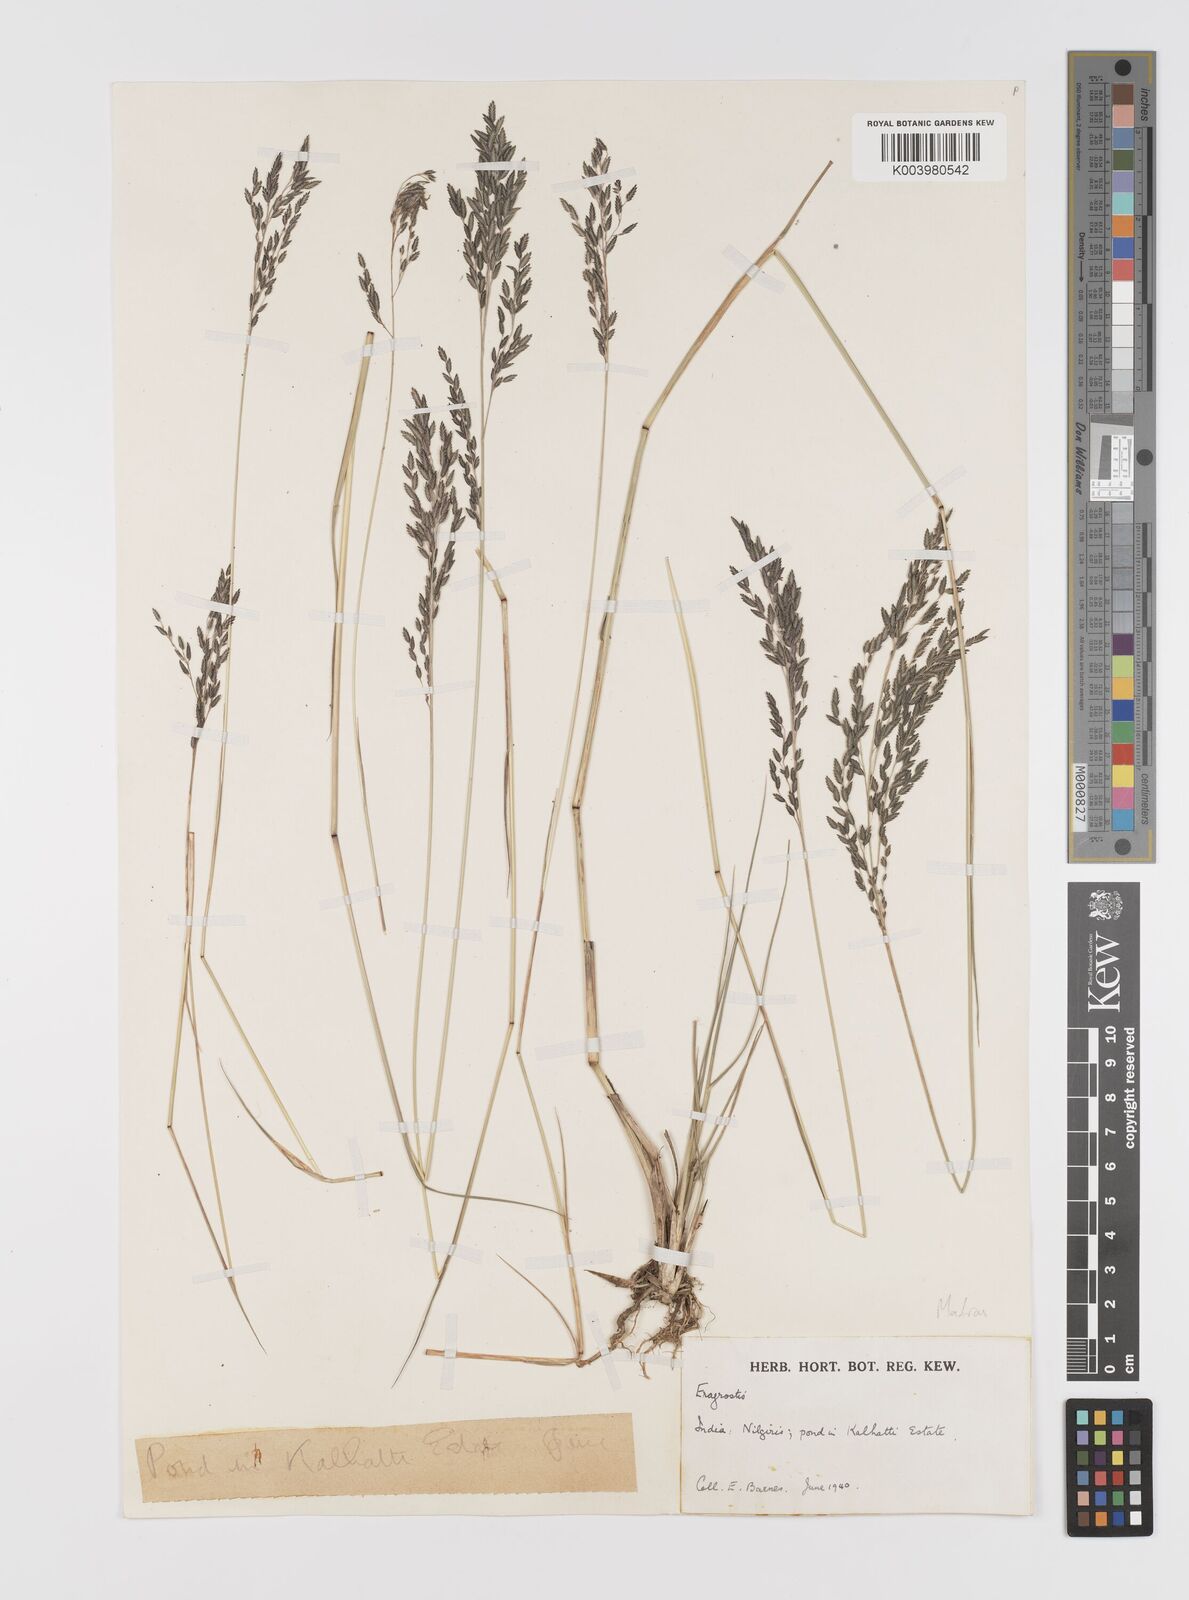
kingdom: Plantae
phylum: Tracheophyta
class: Liliopsida
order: Poales
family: Poaceae
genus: Eragrostis
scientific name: Eragrostis
